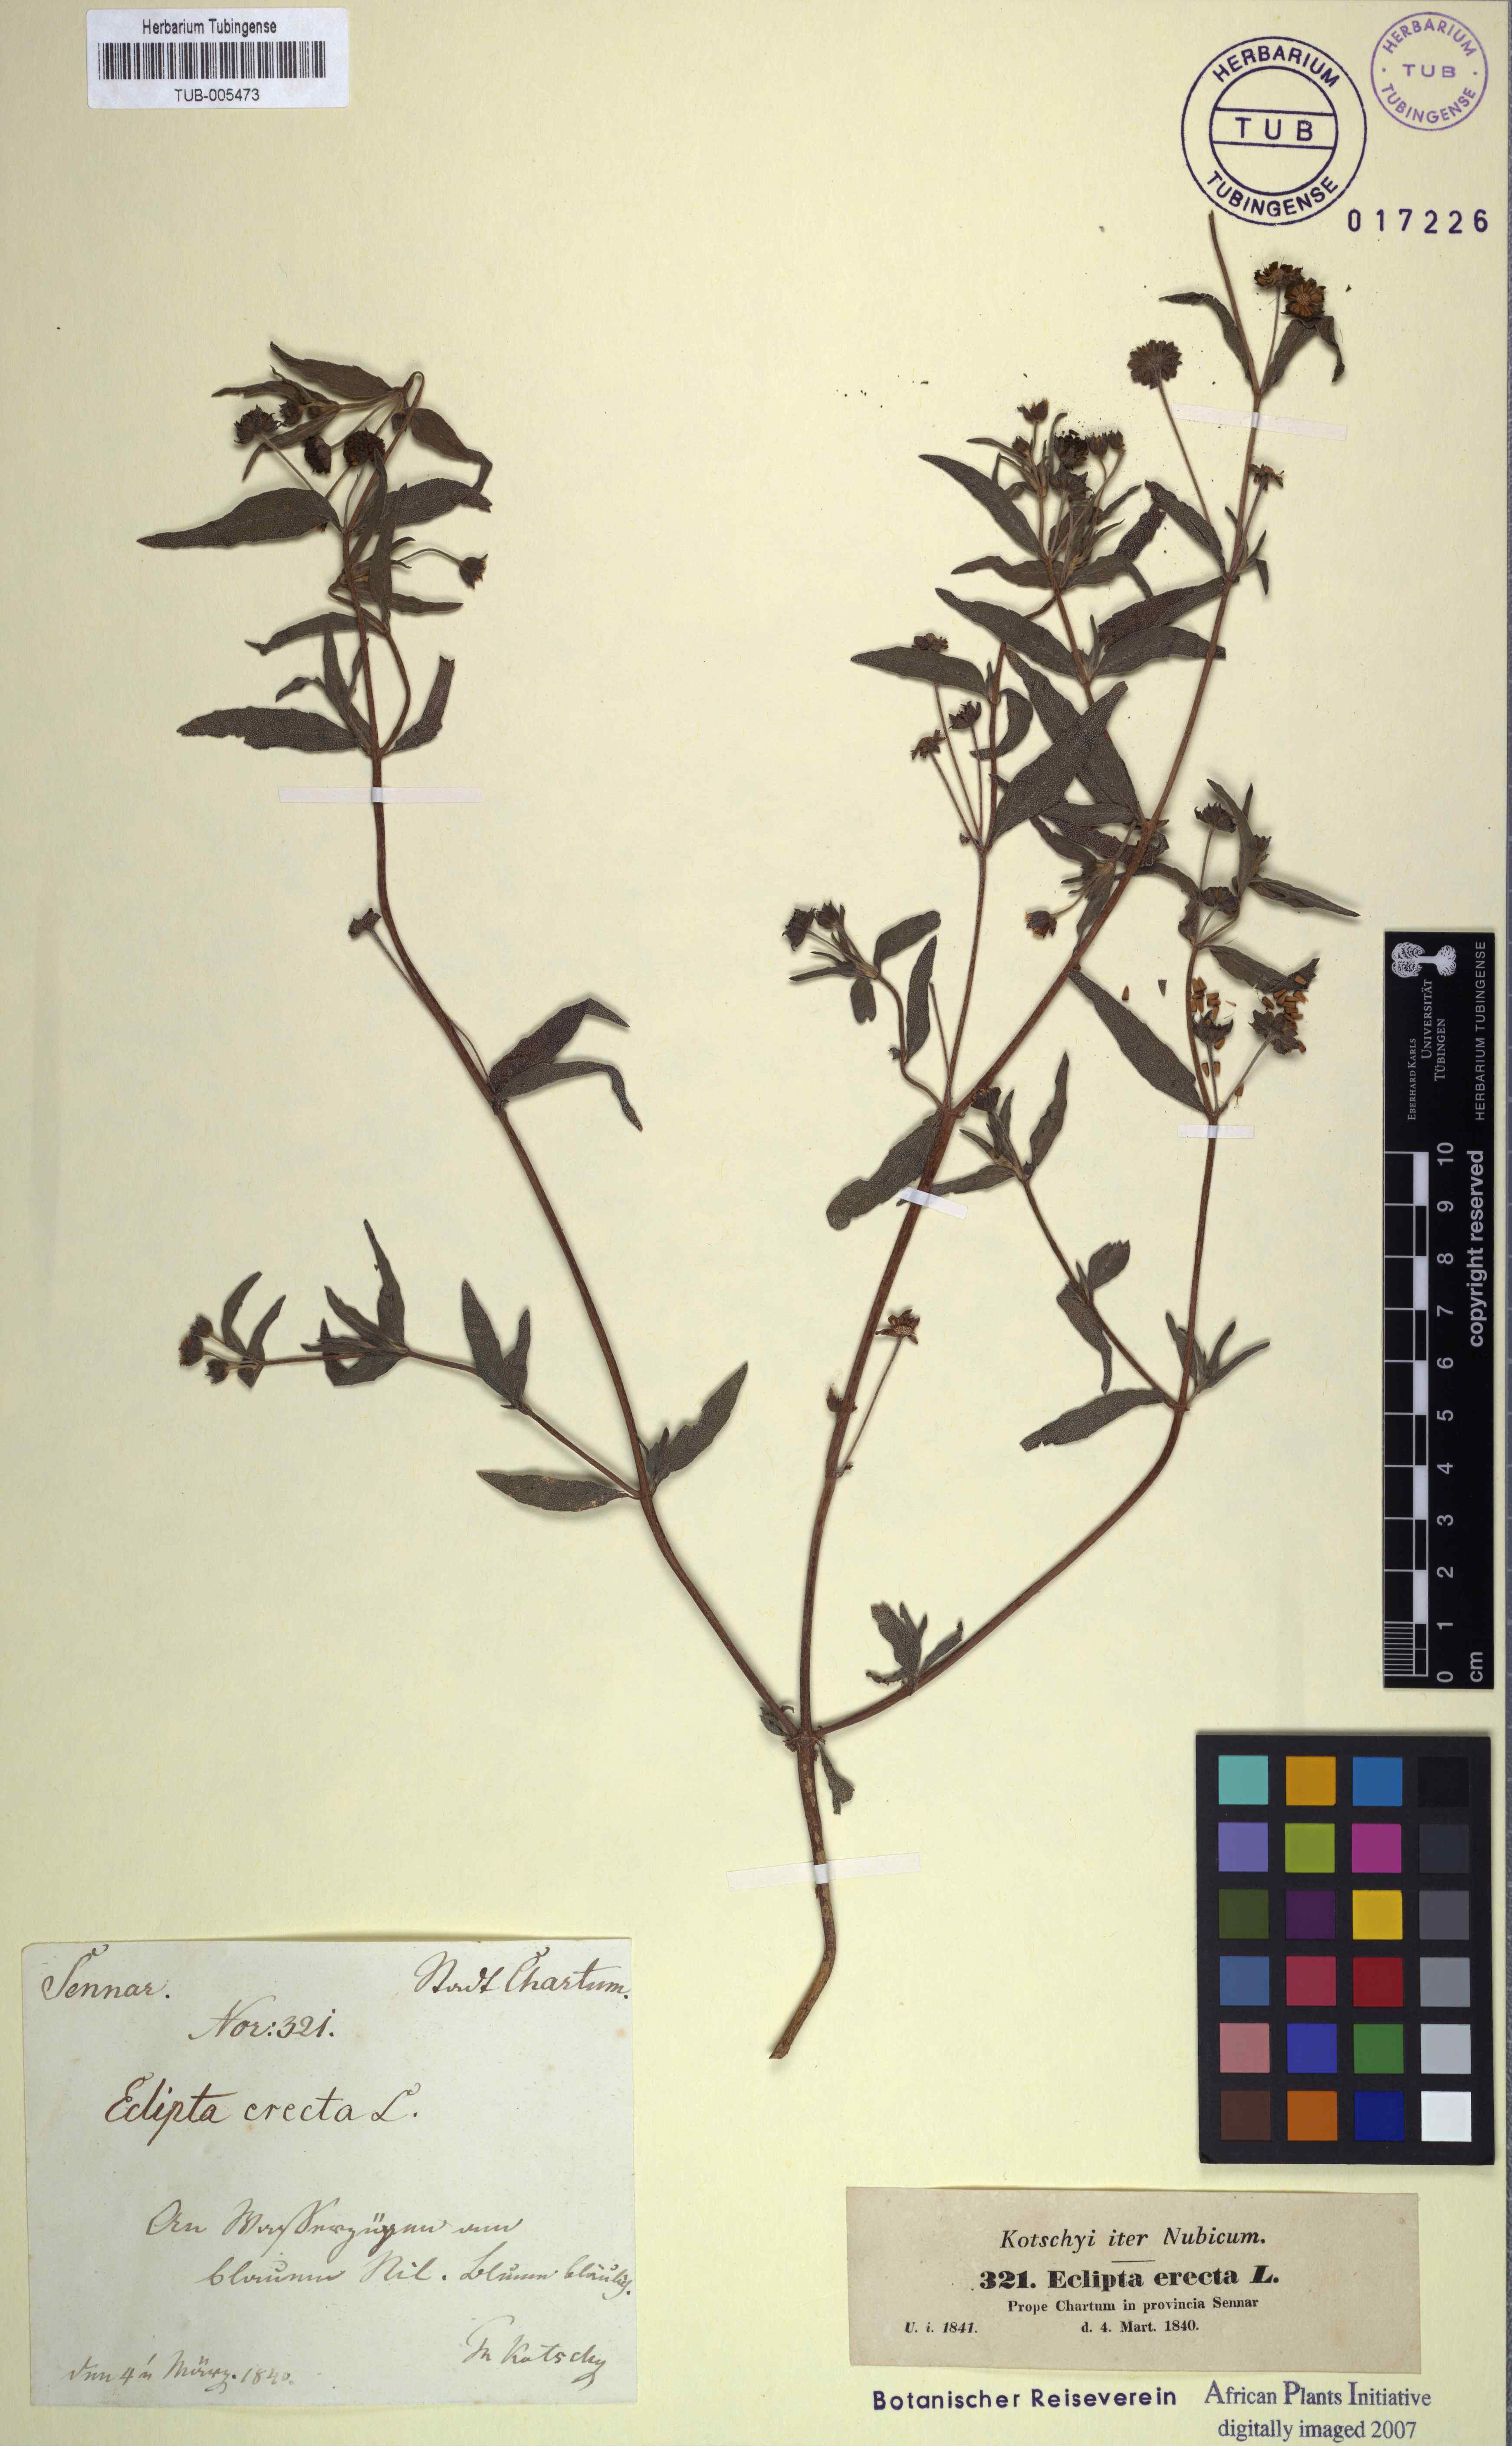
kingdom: Plantae
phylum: Tracheophyta
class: Magnoliopsida
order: Asterales
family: Asteraceae
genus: Eclipta
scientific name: Eclipta alba
